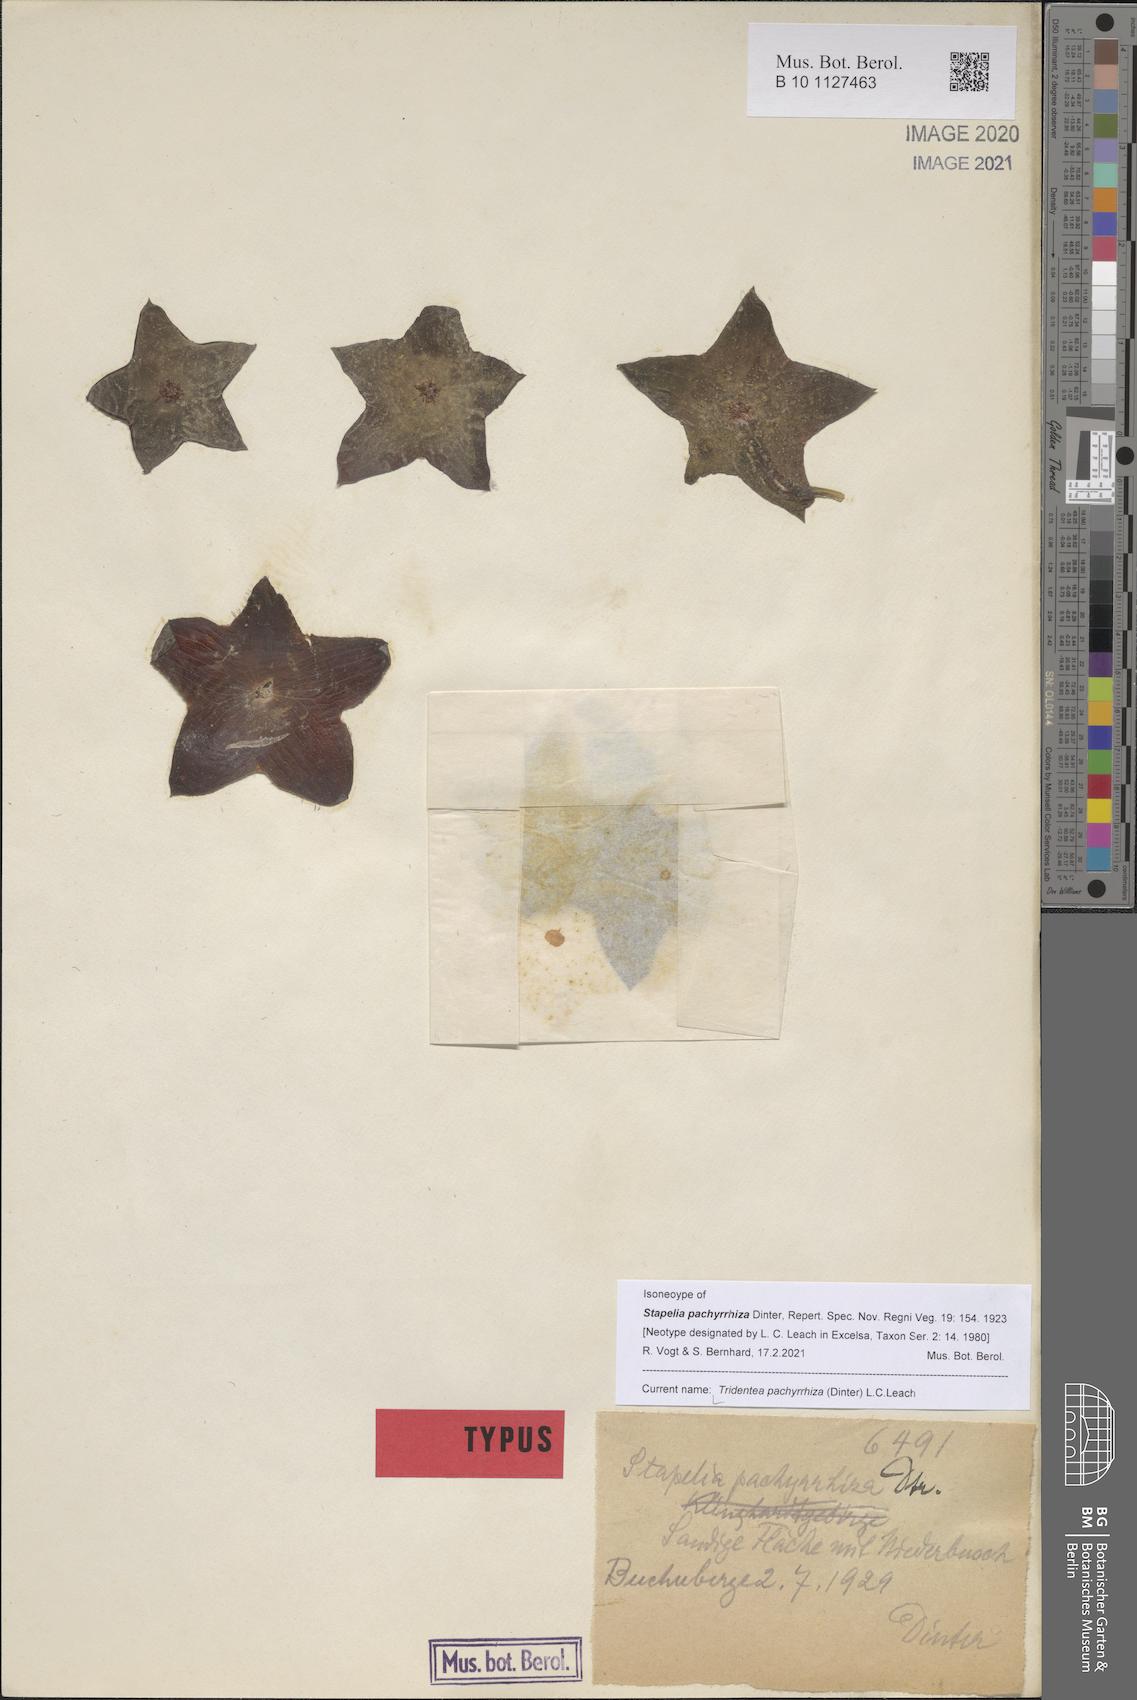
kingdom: Plantae
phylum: Tracheophyta
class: Magnoliopsida
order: Gentianales
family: Apocynaceae
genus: Ceropegia
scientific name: Ceropegia pachyrrhiza
